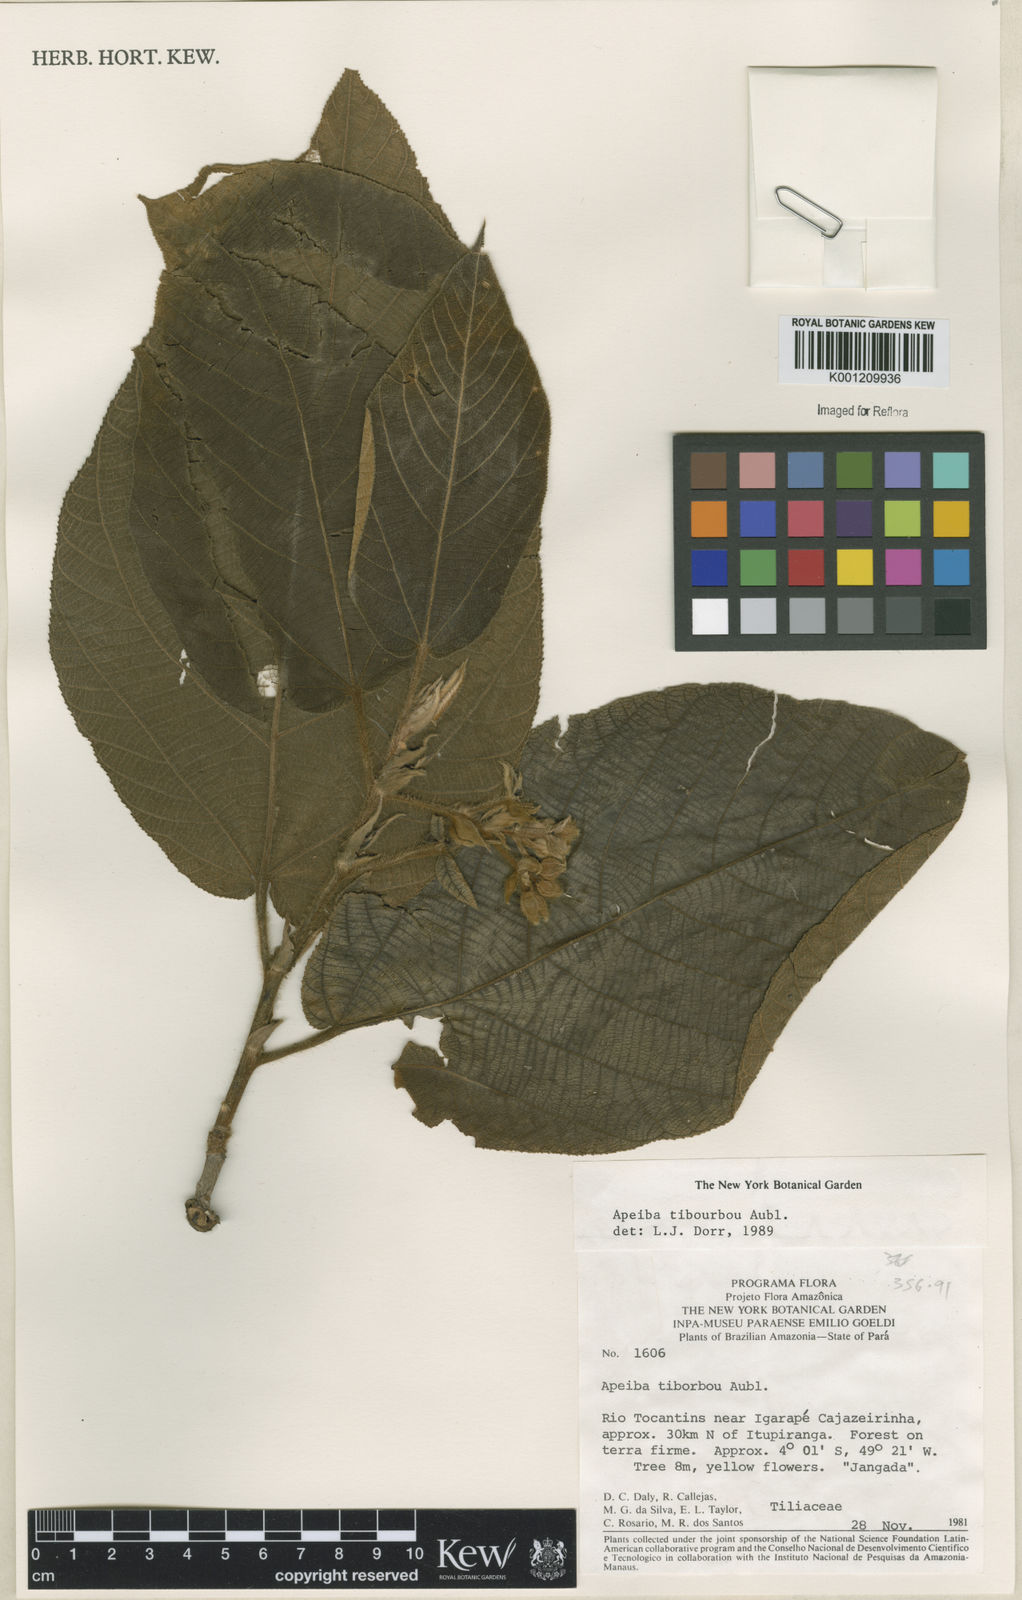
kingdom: Plantae
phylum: Tracheophyta
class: Magnoliopsida
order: Malvales
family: Malvaceae
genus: Apeiba
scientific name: Apeiba tibourbou
